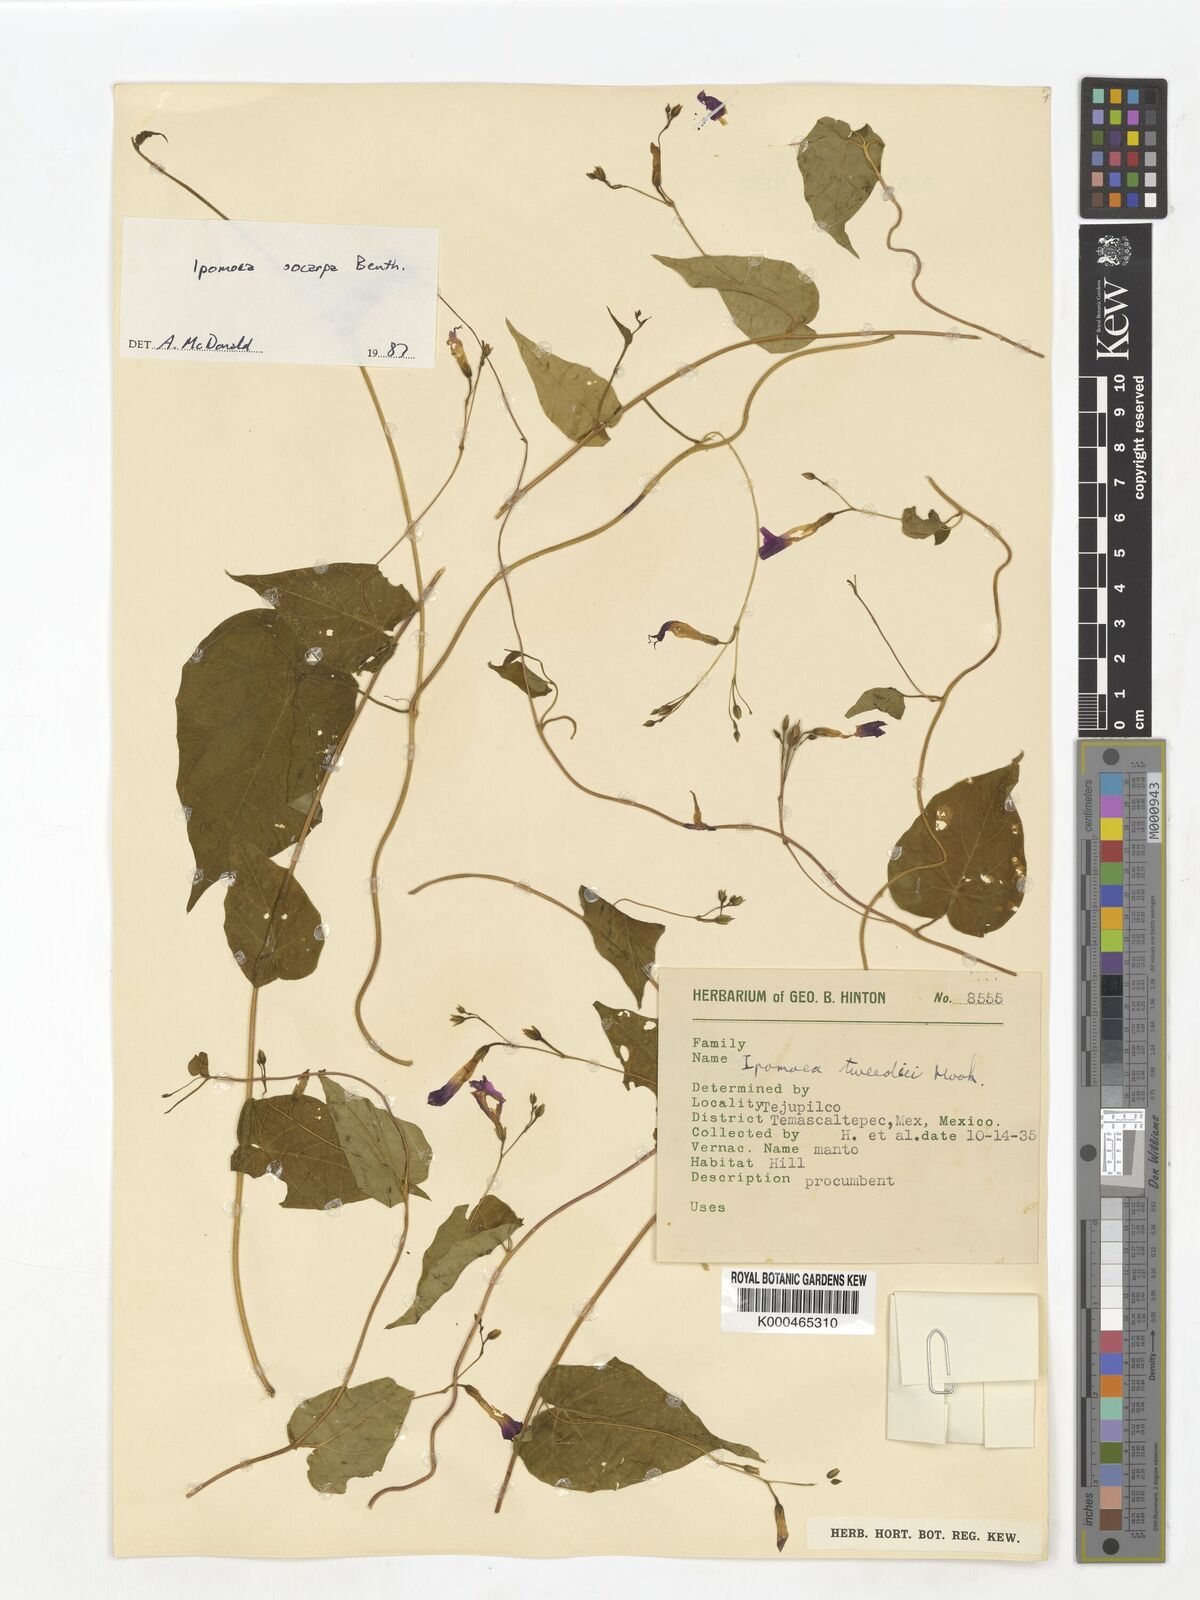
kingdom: Plantae
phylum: Tracheophyta
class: Magnoliopsida
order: Solanales
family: Convolvulaceae
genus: Ipomoea
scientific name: Ipomoea aristolochiifolia
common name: Aristolochia-leaved morning-glory
